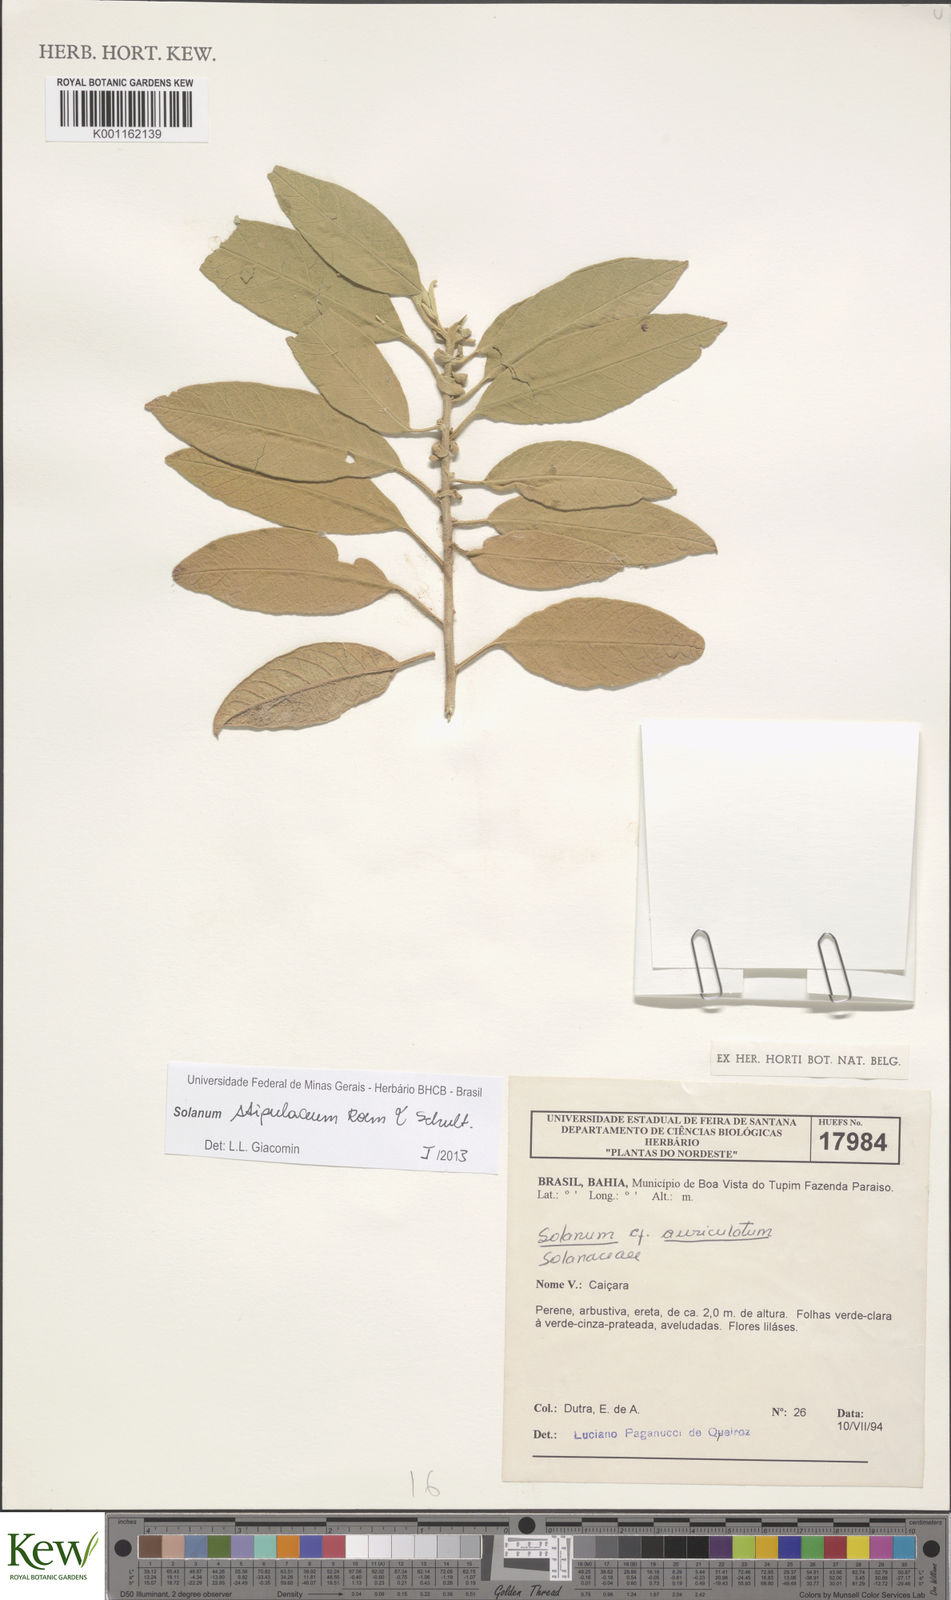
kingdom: Plantae
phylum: Tracheophyta
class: Magnoliopsida
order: Solanales
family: Solanaceae
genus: Solanum
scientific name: Solanum stipulaceum
